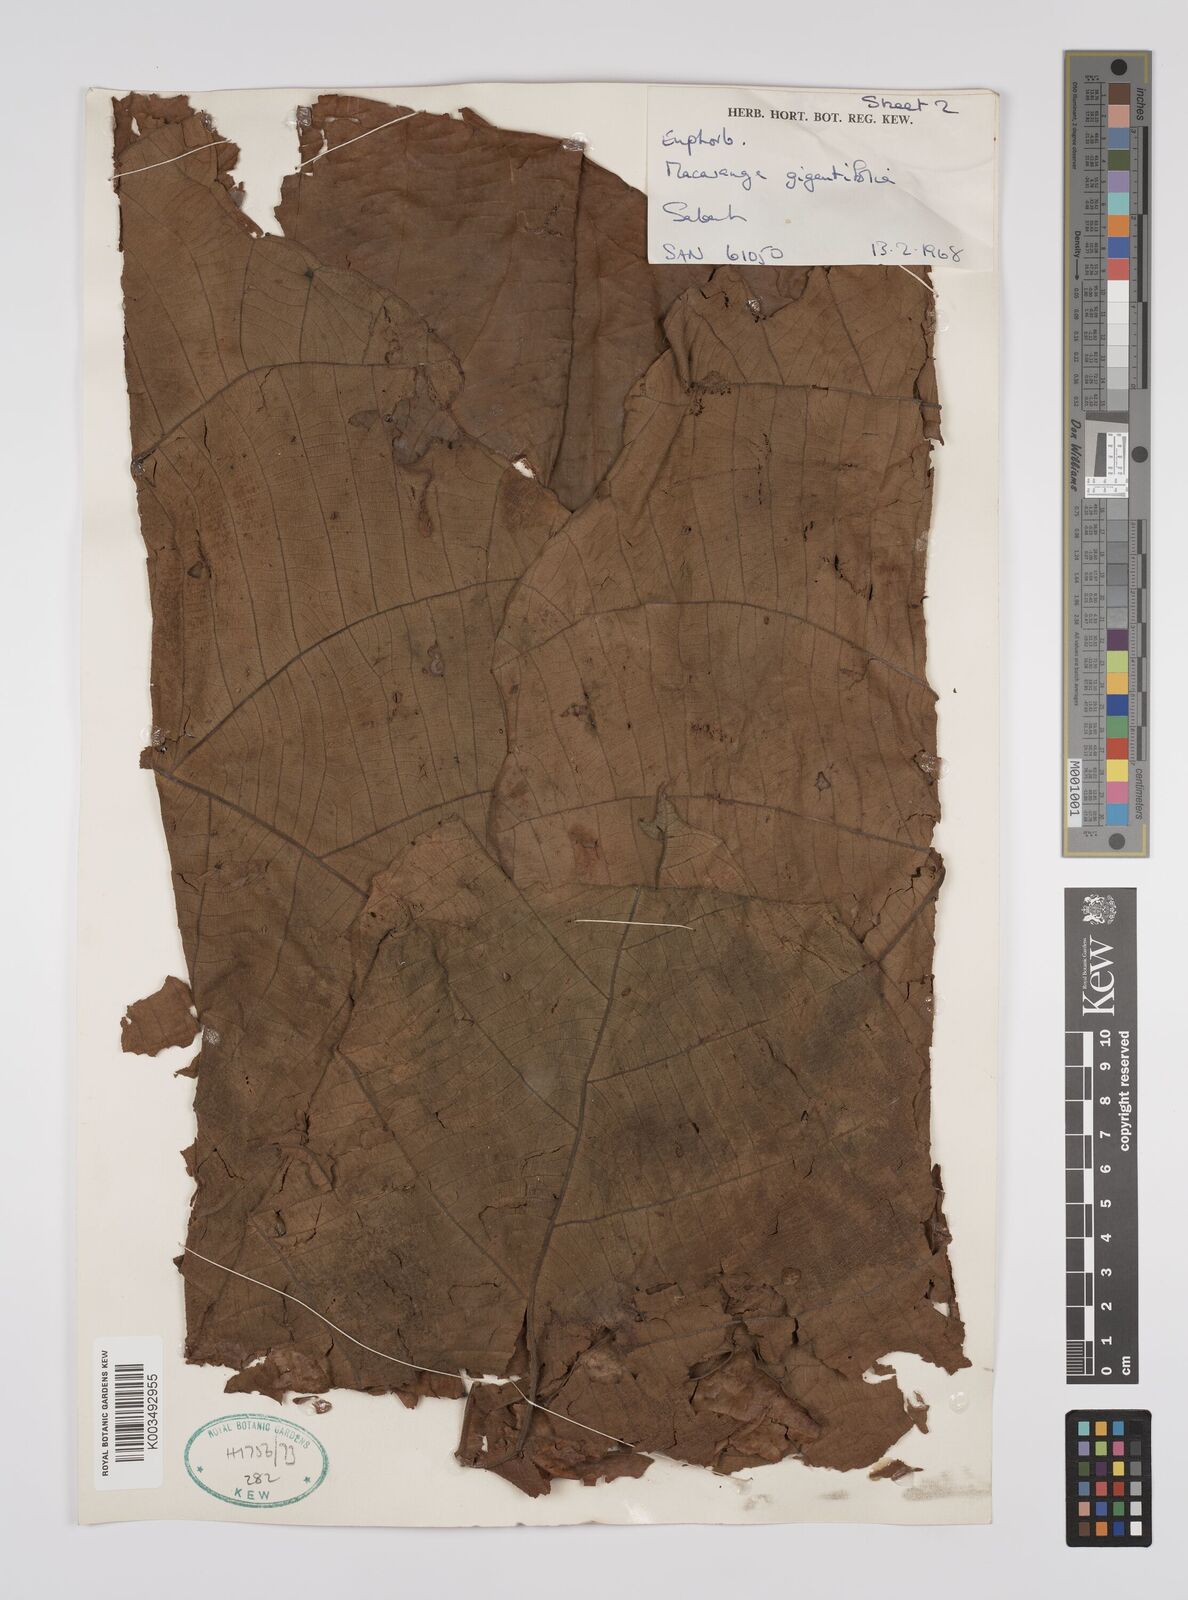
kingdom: Plantae
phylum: Tracheophyta
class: Magnoliopsida
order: Malpighiales
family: Euphorbiaceae
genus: Macaranga
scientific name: Macaranga gigantea
